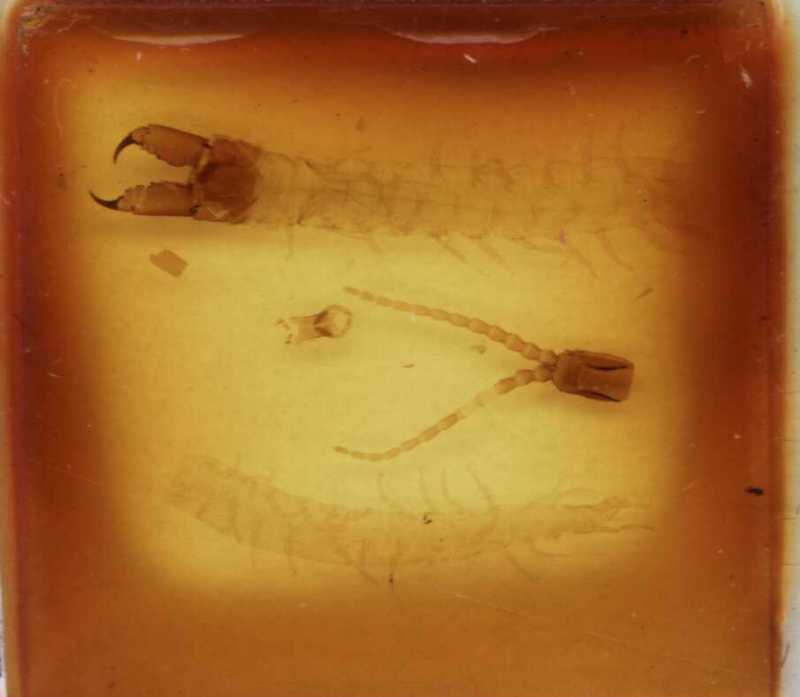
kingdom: Animalia
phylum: Arthropoda
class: Chilopoda
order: Geophilomorpha
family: Mecistocephalidae
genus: Mecistocephalus
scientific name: Mecistocephalus takakuwai
